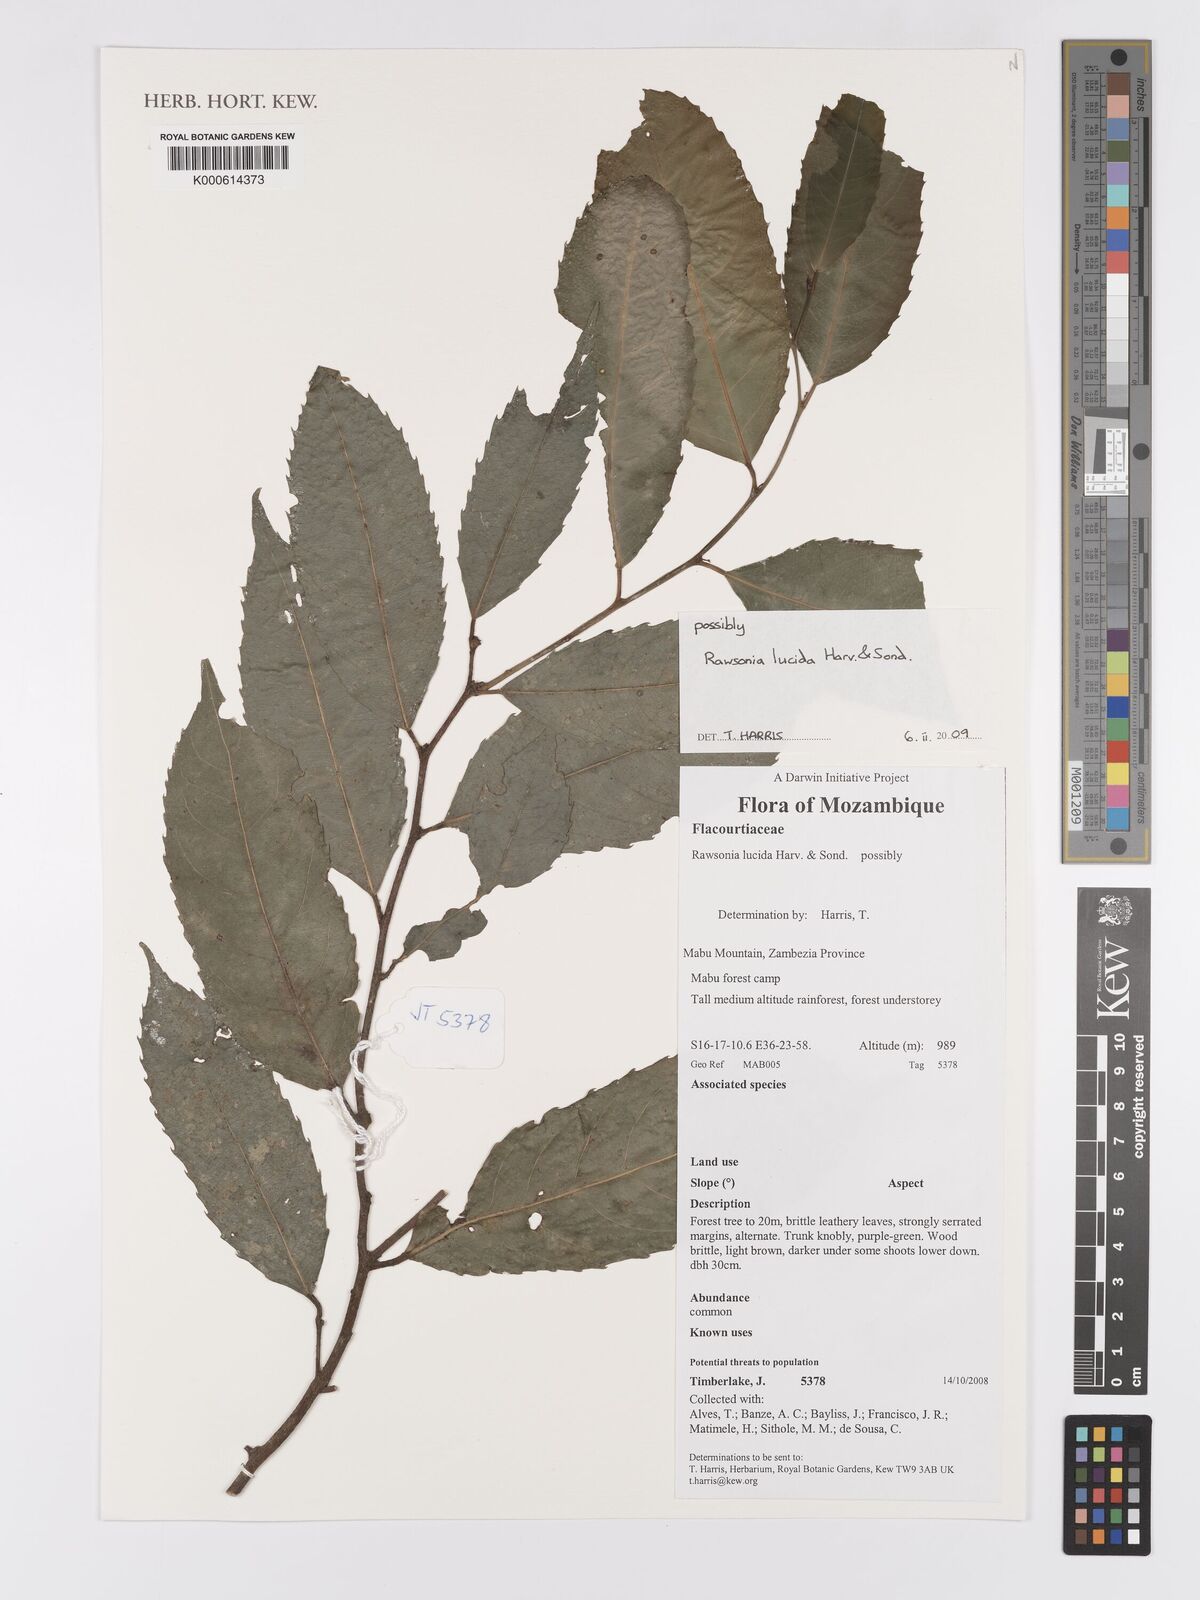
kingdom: Plantae
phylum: Tracheophyta
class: Magnoliopsida
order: Malpighiales
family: Achariaceae
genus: Rawsonia
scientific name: Rawsonia lucida
